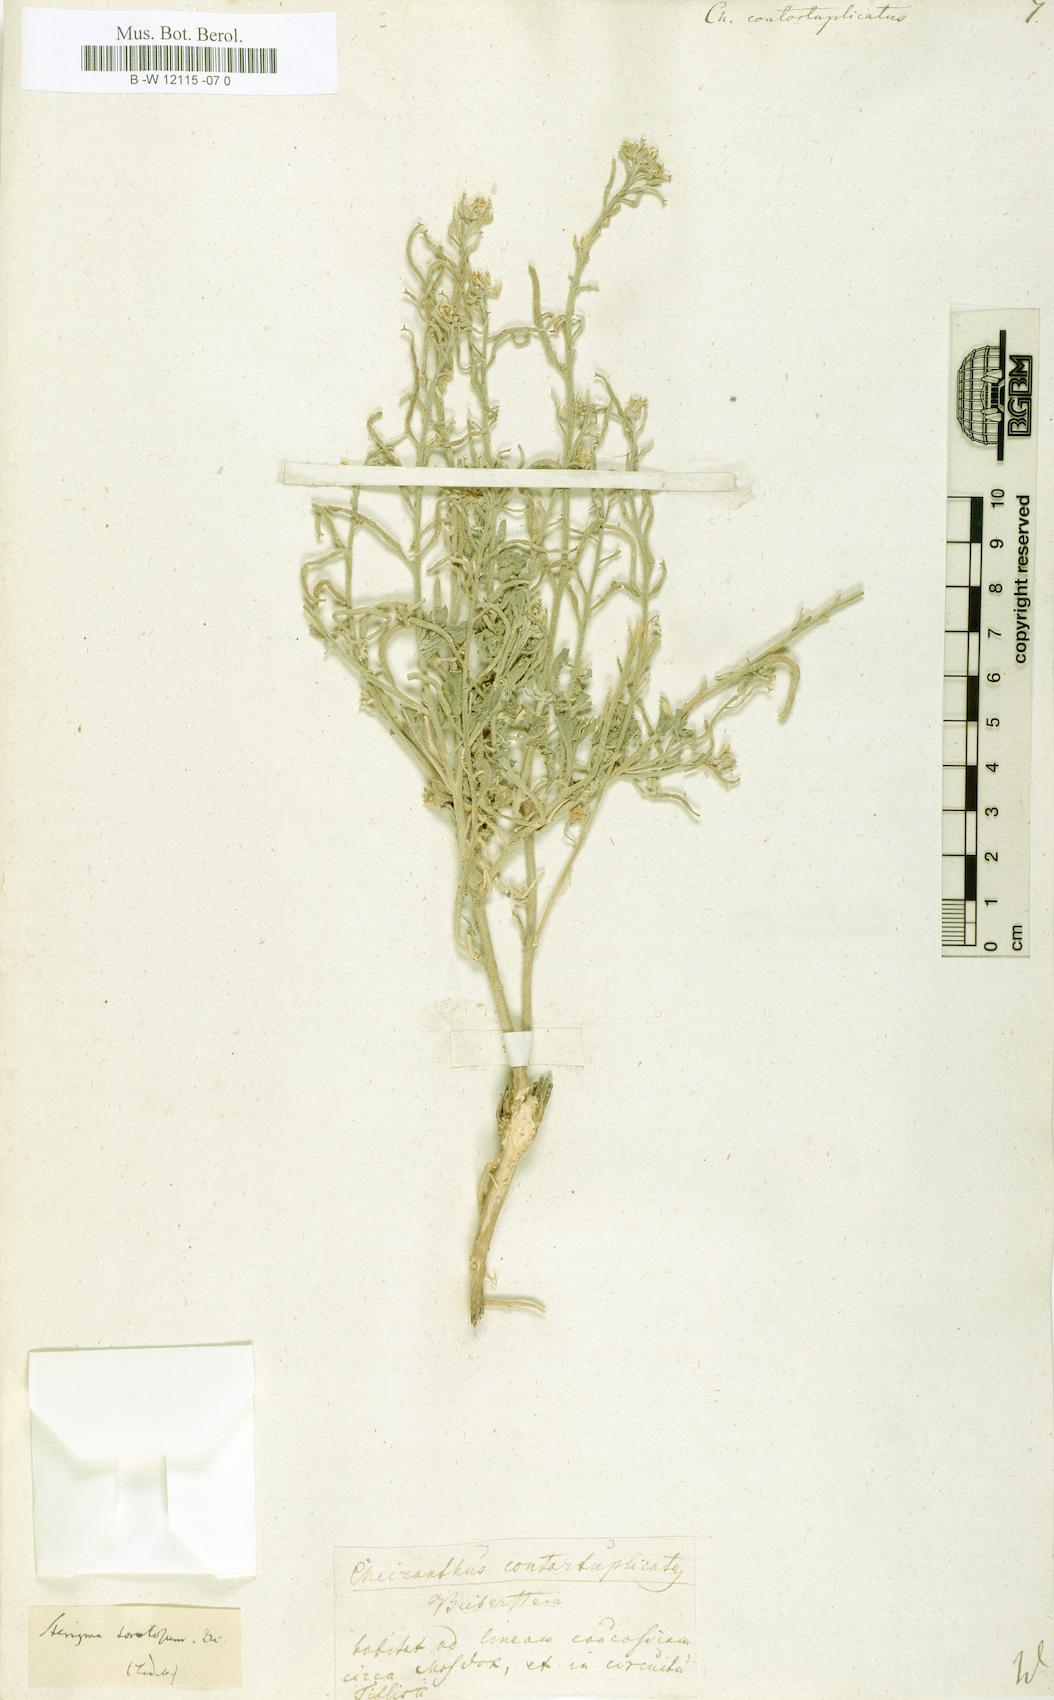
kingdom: Plantae
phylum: Tracheophyta
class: Magnoliopsida
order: Brassicales
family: Brassicaceae
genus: Neotorularia
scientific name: Neotorularia contortuplicata
